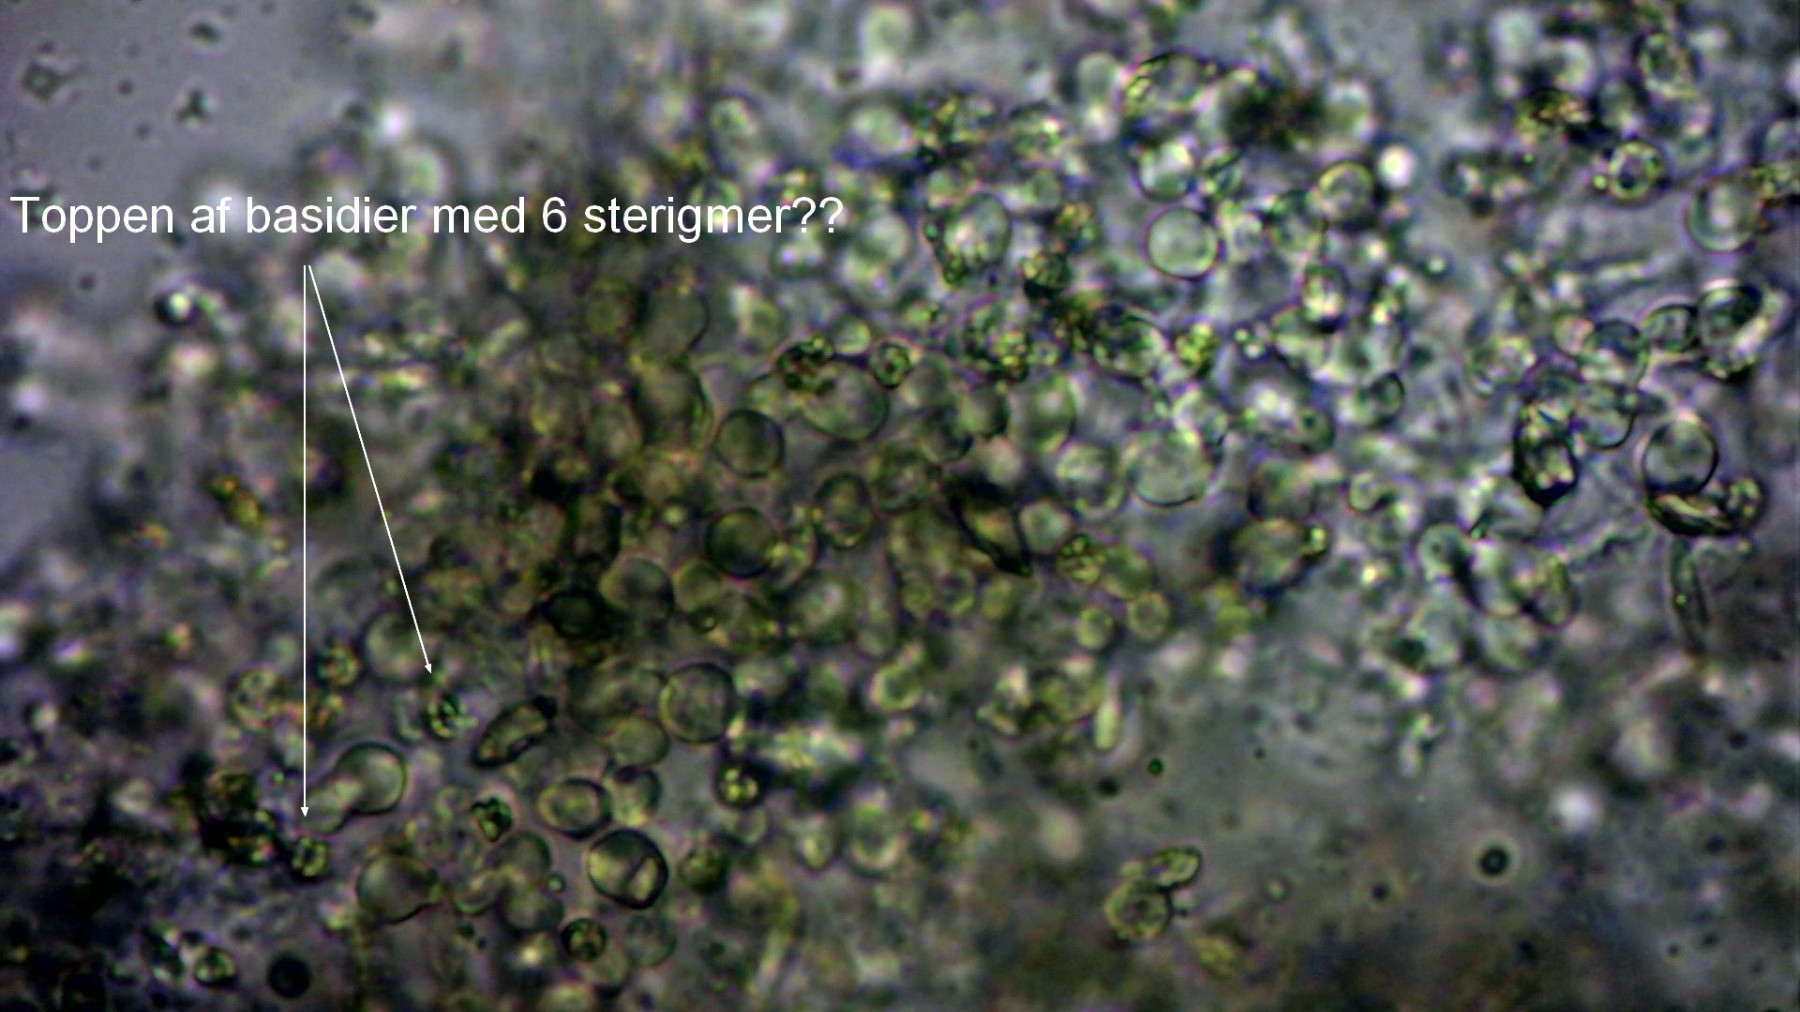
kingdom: Fungi
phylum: Basidiomycota
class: Agaricomycetes
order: Atheliales
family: Atheliaceae
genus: Athelopsis
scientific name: Athelopsis glaucina
